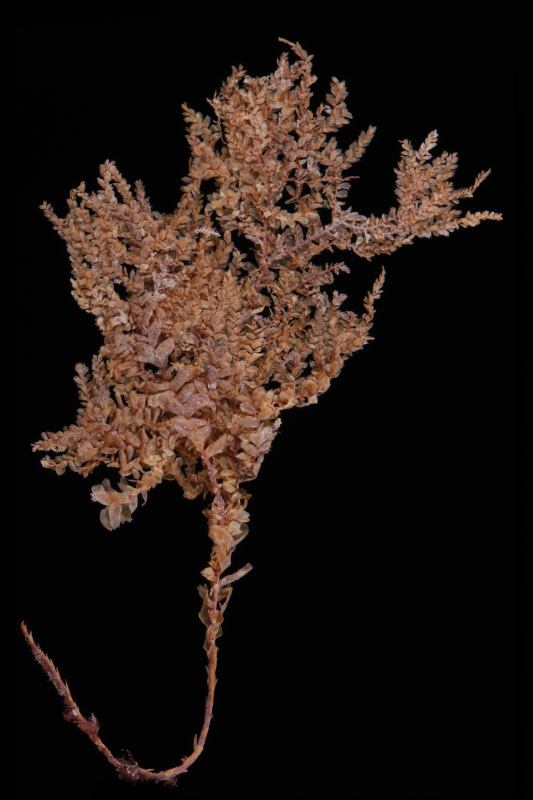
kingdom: Plantae
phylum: Bryophyta
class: Bryopsida
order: Hypnales
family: Neckeraceae
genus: Homaliodendron
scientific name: Homaliodendron crassinervium
